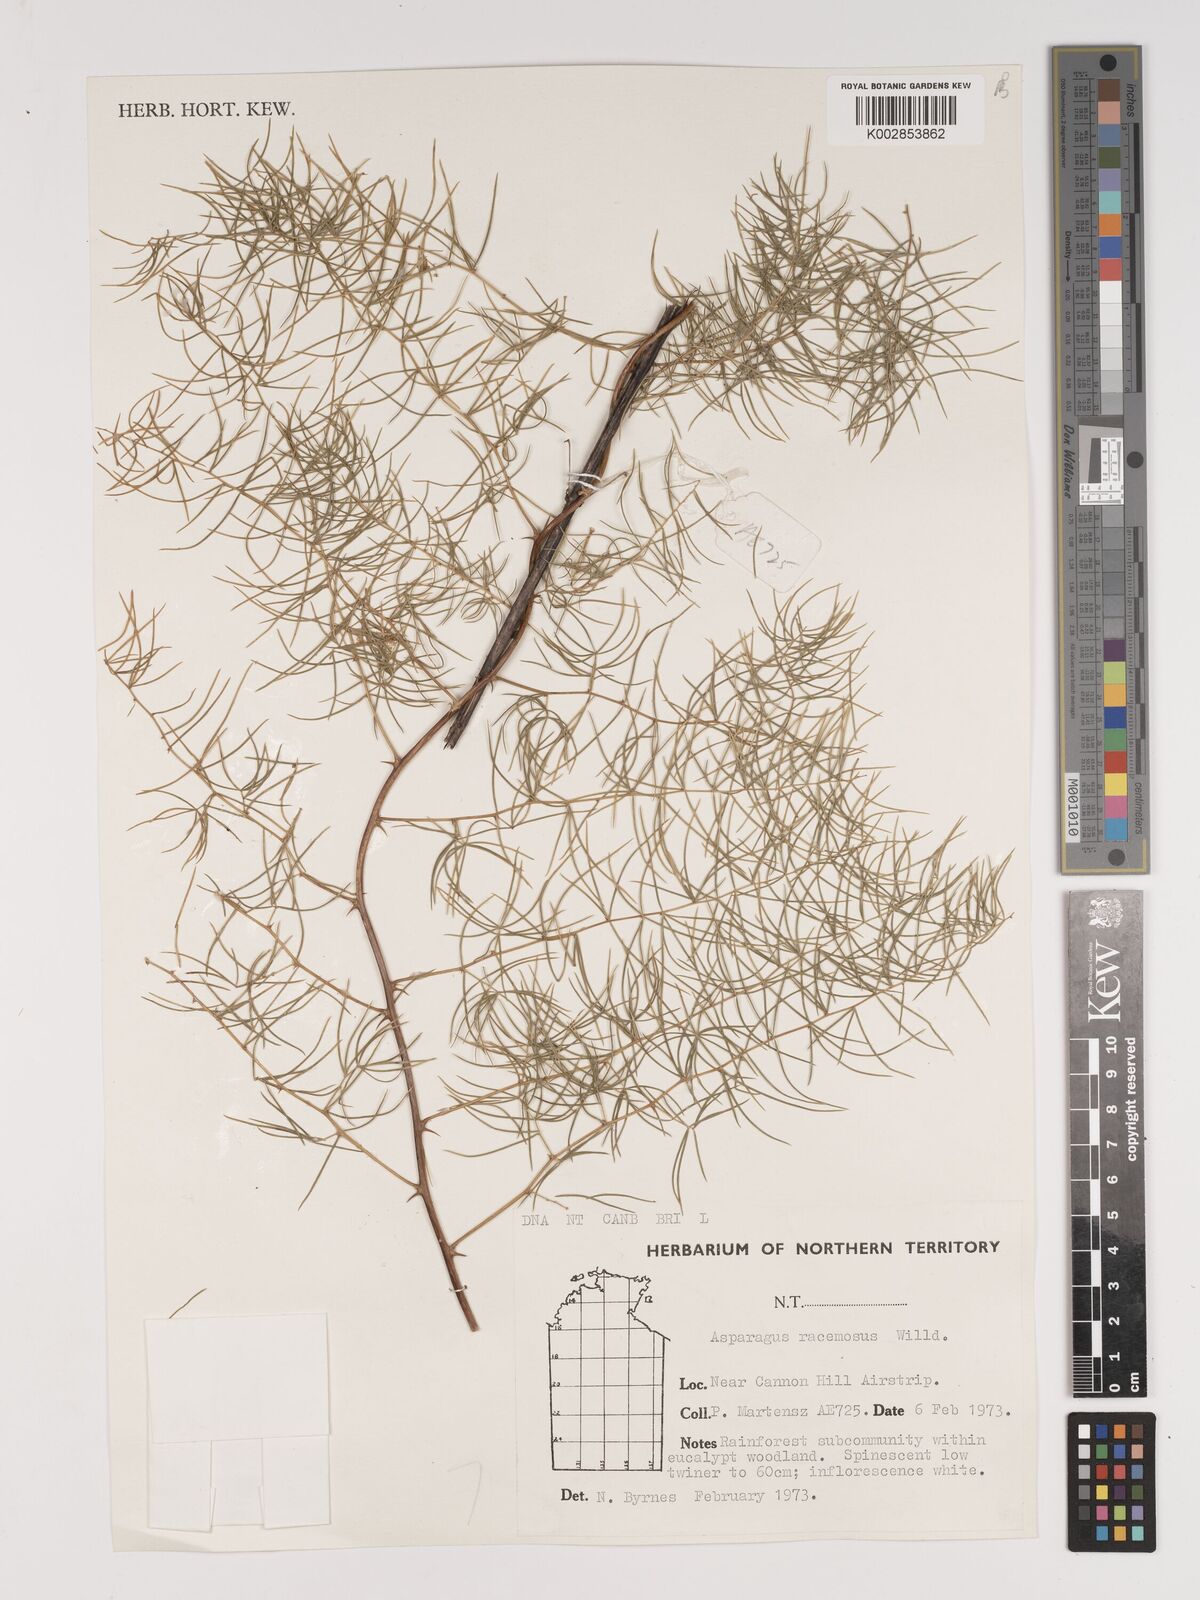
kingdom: Plantae
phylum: Tracheophyta
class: Liliopsida
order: Asparagales
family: Asparagaceae
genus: Asparagus
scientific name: Asparagus racemosus
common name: Asparagus-fern
